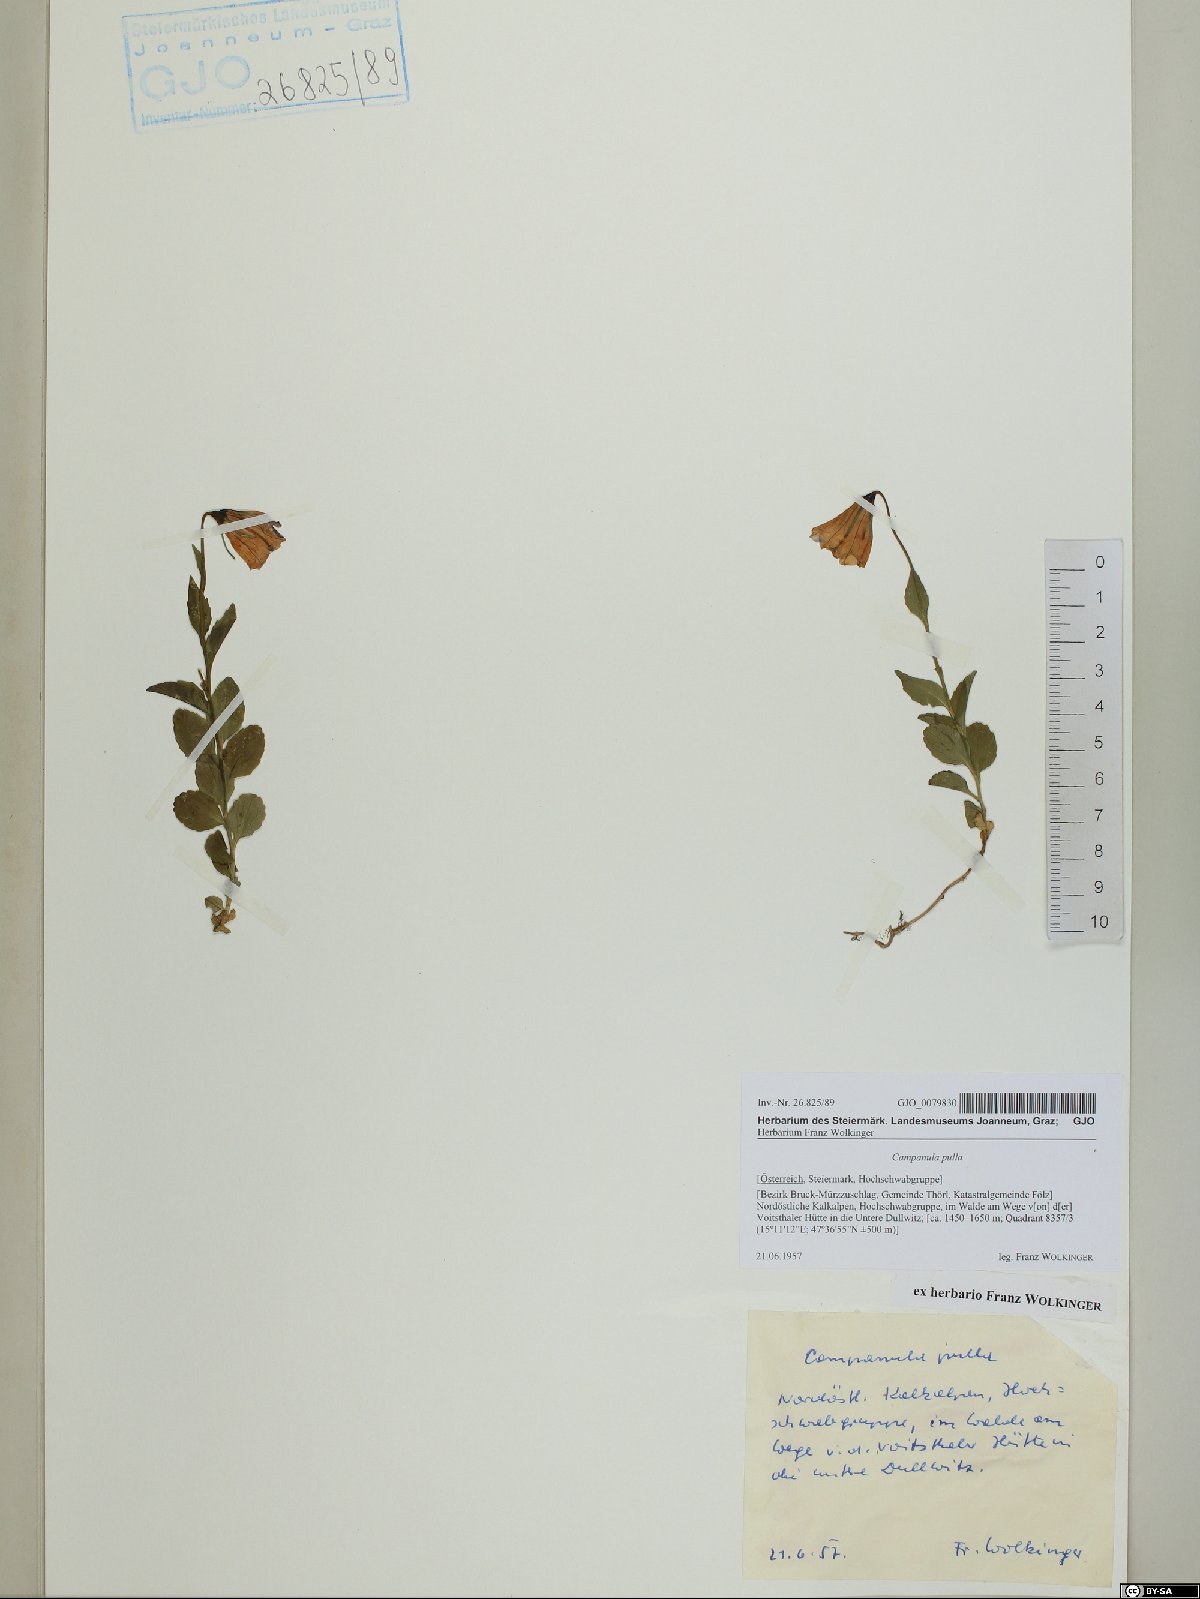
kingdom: Plantae
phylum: Tracheophyta
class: Magnoliopsida
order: Asterales
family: Campanulaceae
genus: Campanula
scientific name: Campanula pulla
